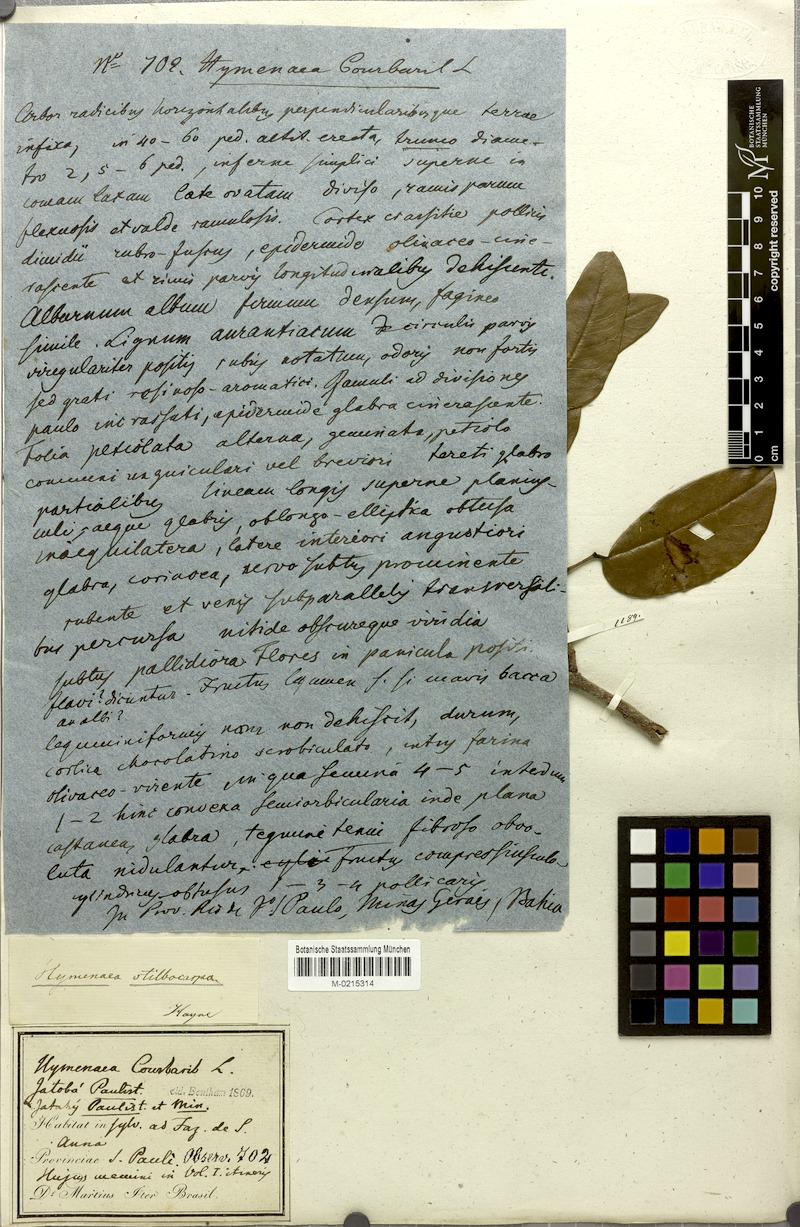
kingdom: Plantae
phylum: Tracheophyta
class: Magnoliopsida
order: Fabales
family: Fabaceae
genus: Hymenaea
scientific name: Hymenaea courbaril
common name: Brazilian copal
